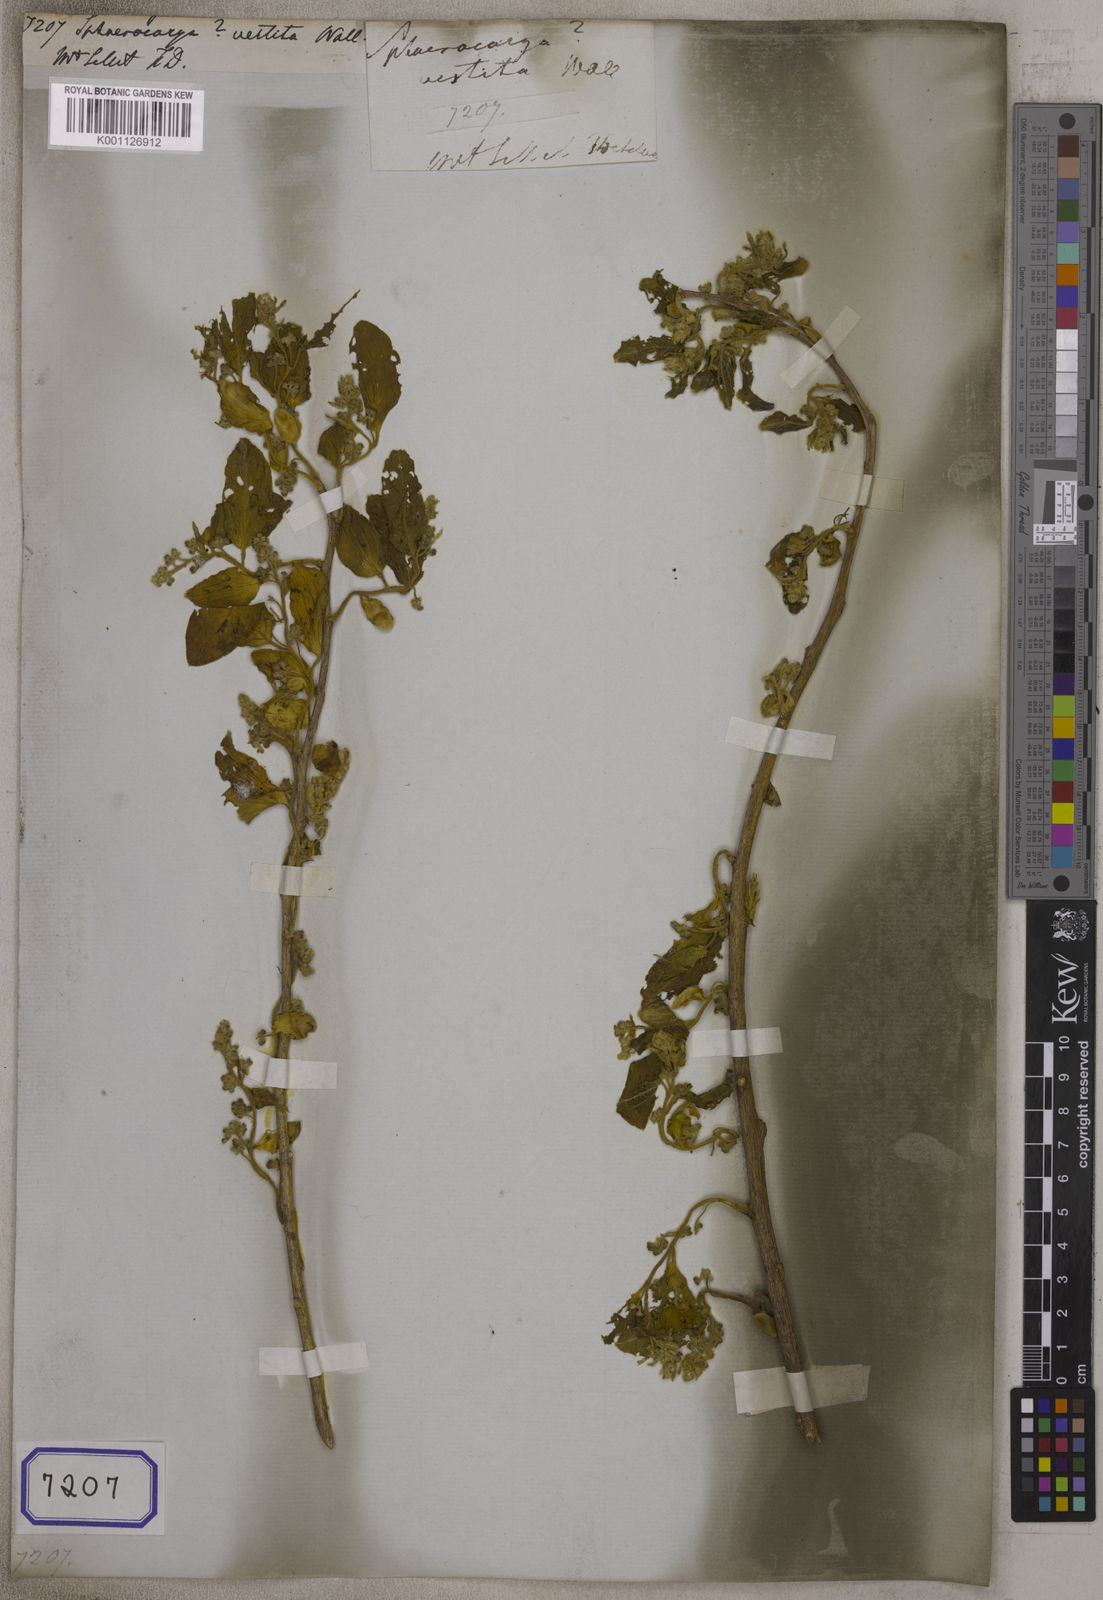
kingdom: Plantae
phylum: Tracheophyta
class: Magnoliopsida
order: Santalales
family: Cervantesiaceae
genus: Pyrularia
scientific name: Pyrularia edulis
